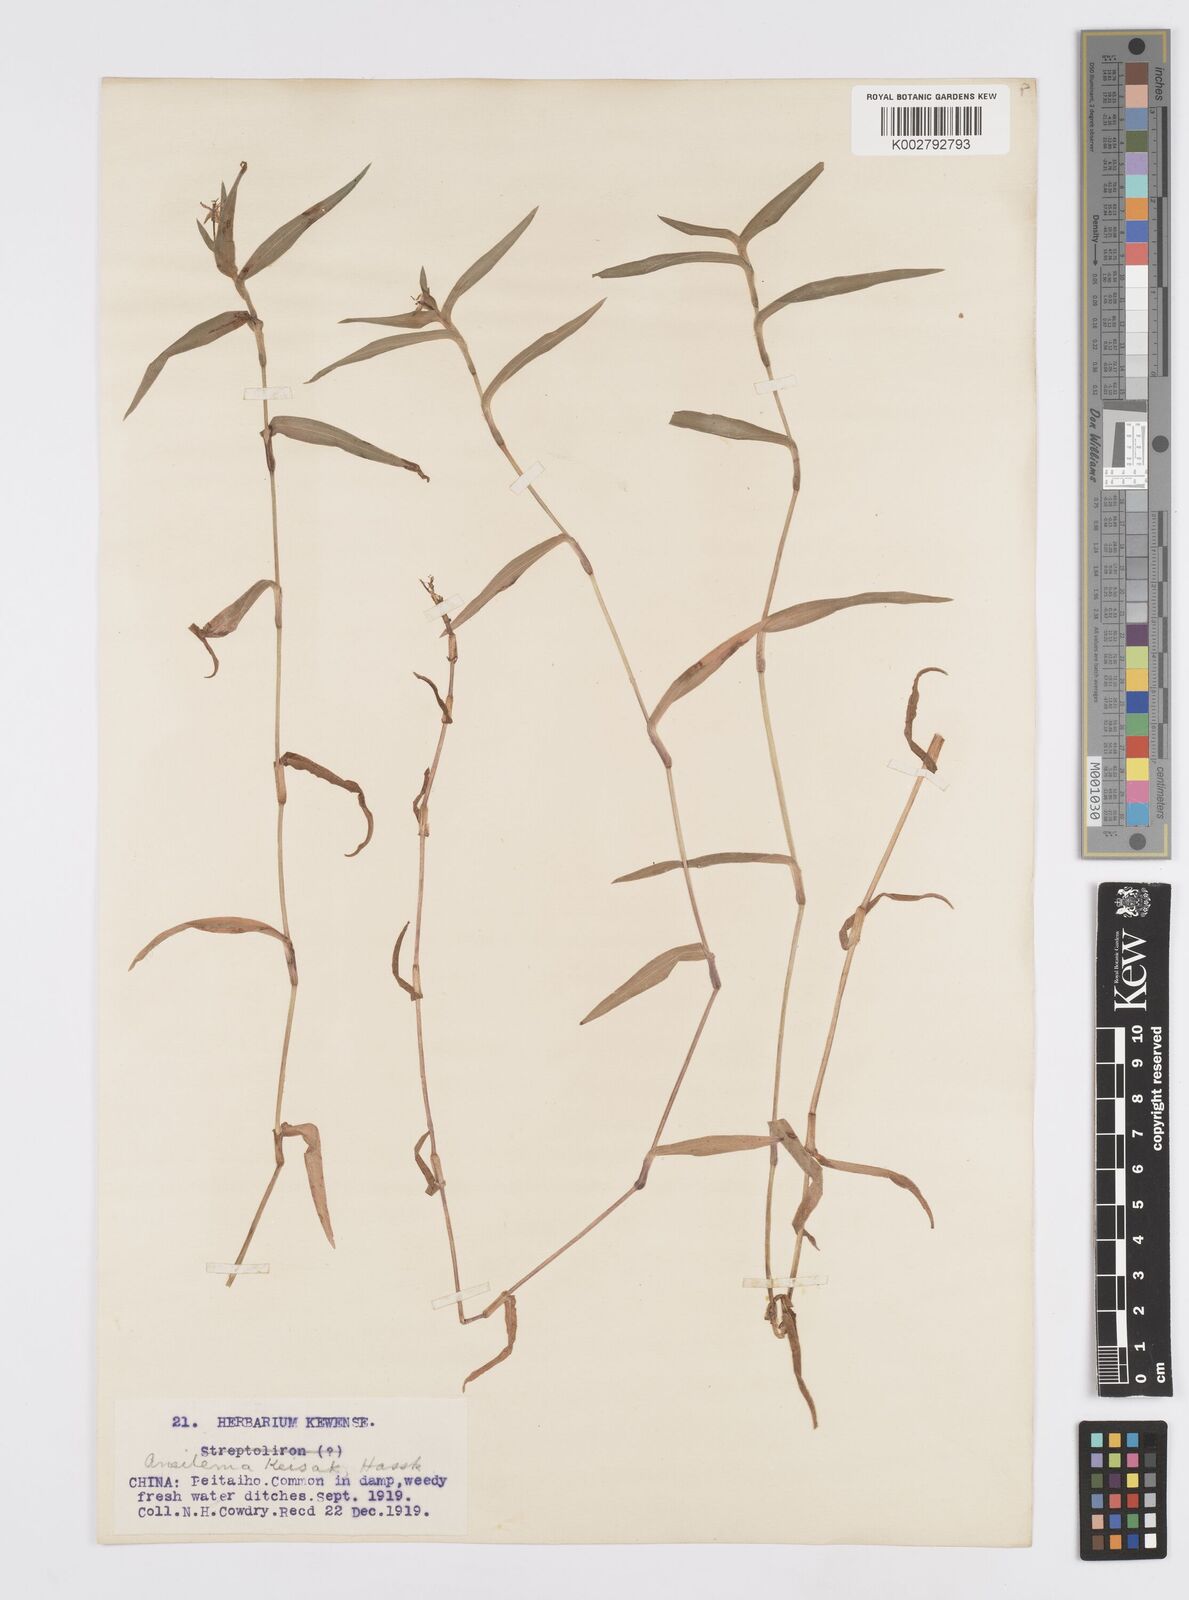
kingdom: Plantae
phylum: Tracheophyta
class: Liliopsida
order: Commelinales
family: Commelinaceae
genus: Murdannia
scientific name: Murdannia keisak
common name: Wartremoving herb
